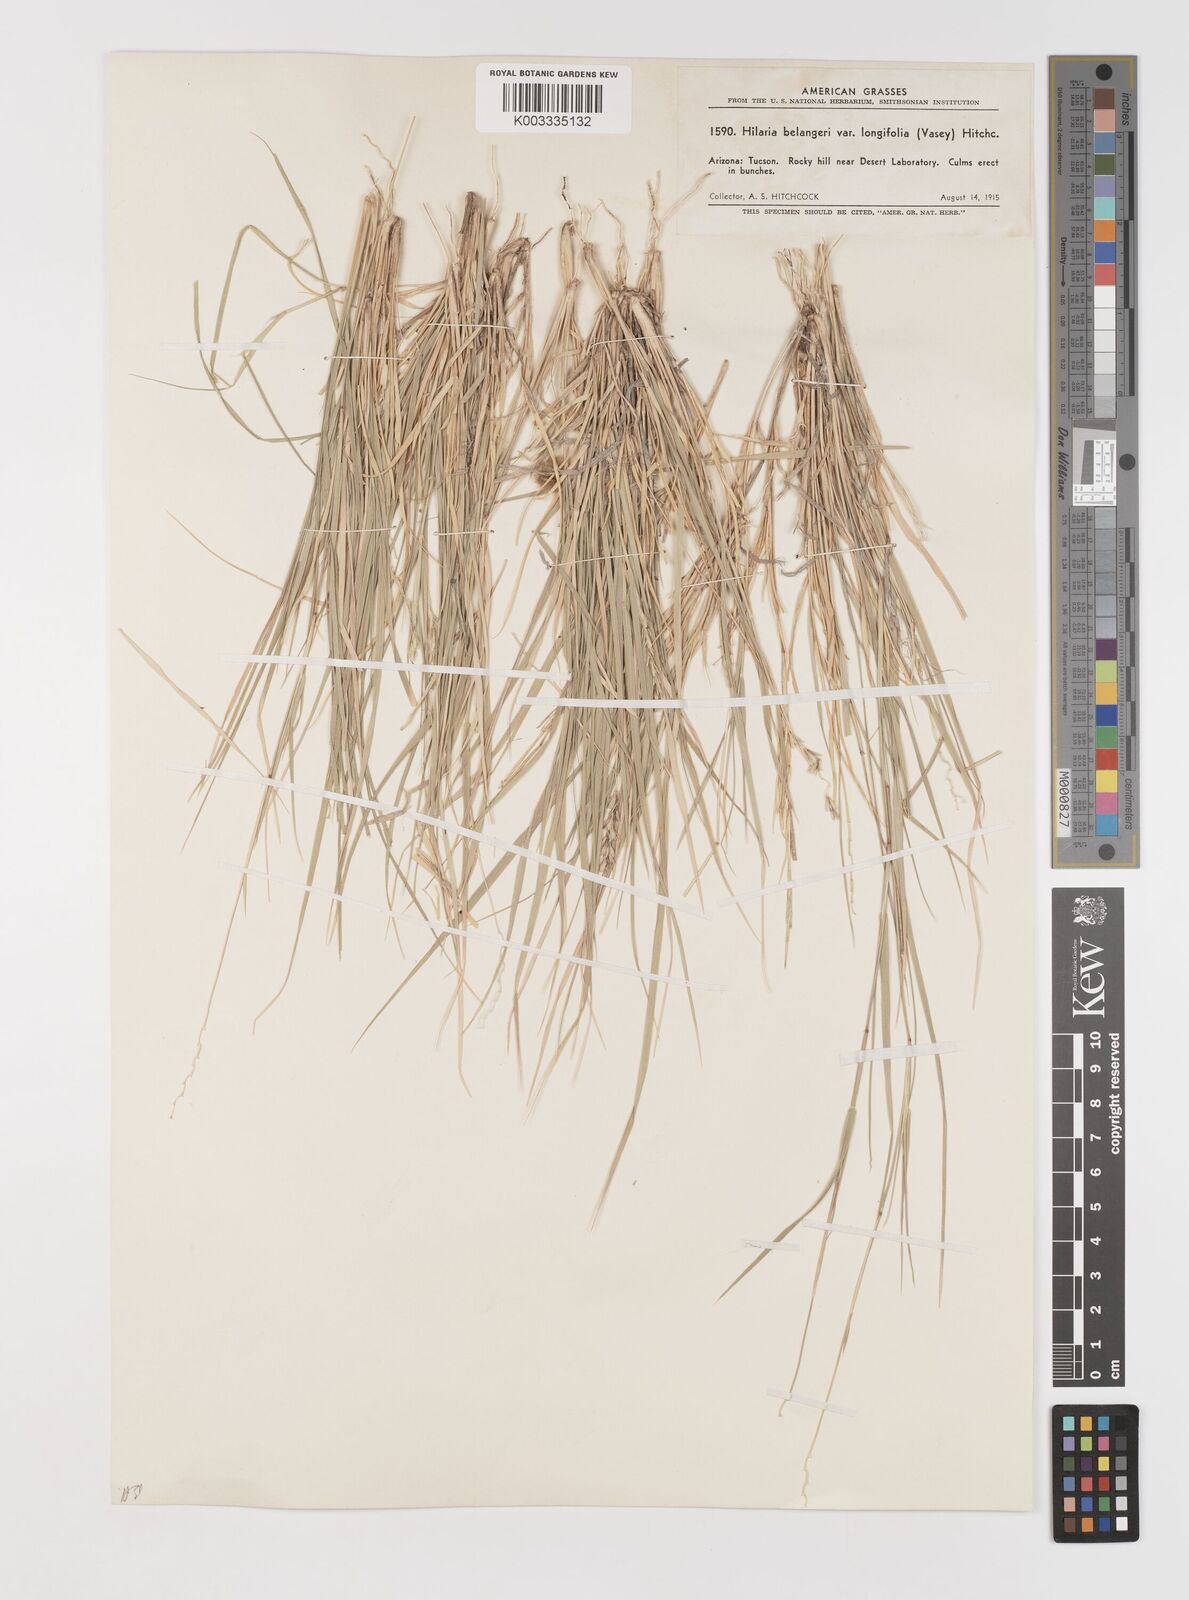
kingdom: Plantae
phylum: Tracheophyta
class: Liliopsida
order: Poales
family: Poaceae
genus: Hilaria
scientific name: Hilaria belangeri
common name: Curly-mesquite
